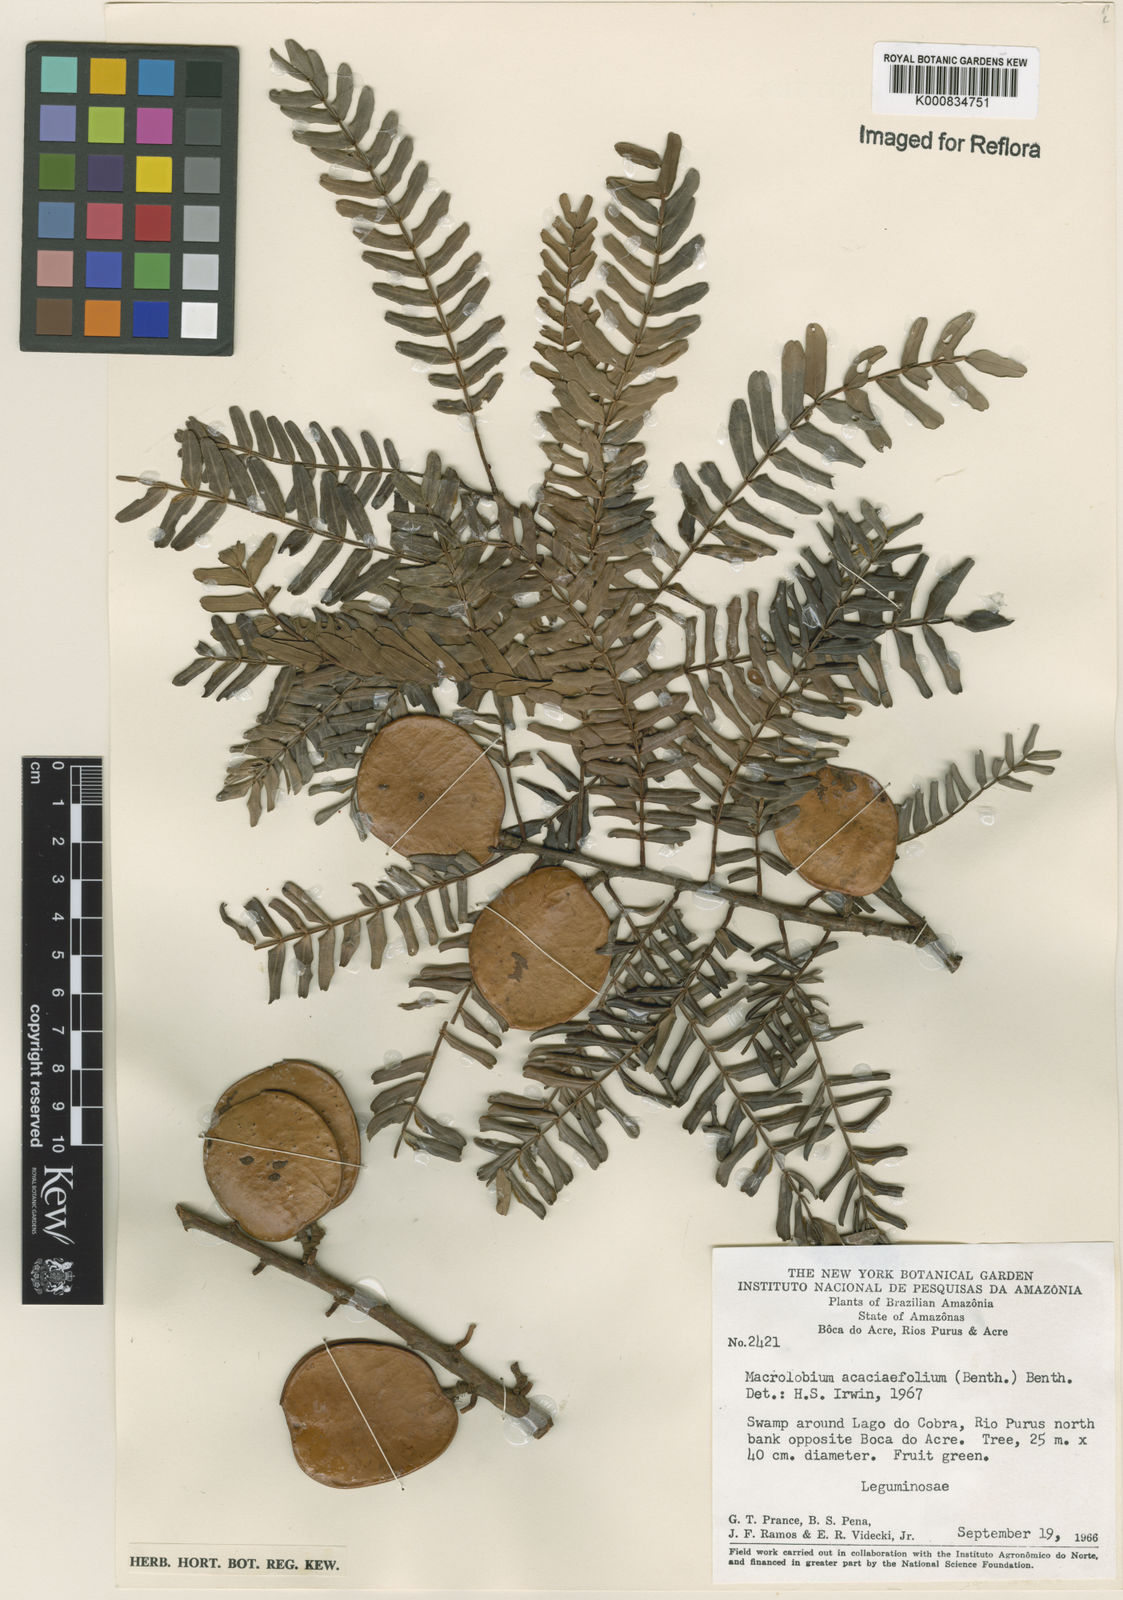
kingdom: Plantae
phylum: Tracheophyta
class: Magnoliopsida
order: Fabales
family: Fabaceae
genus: Macrolobium
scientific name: Macrolobium acaciifolium
